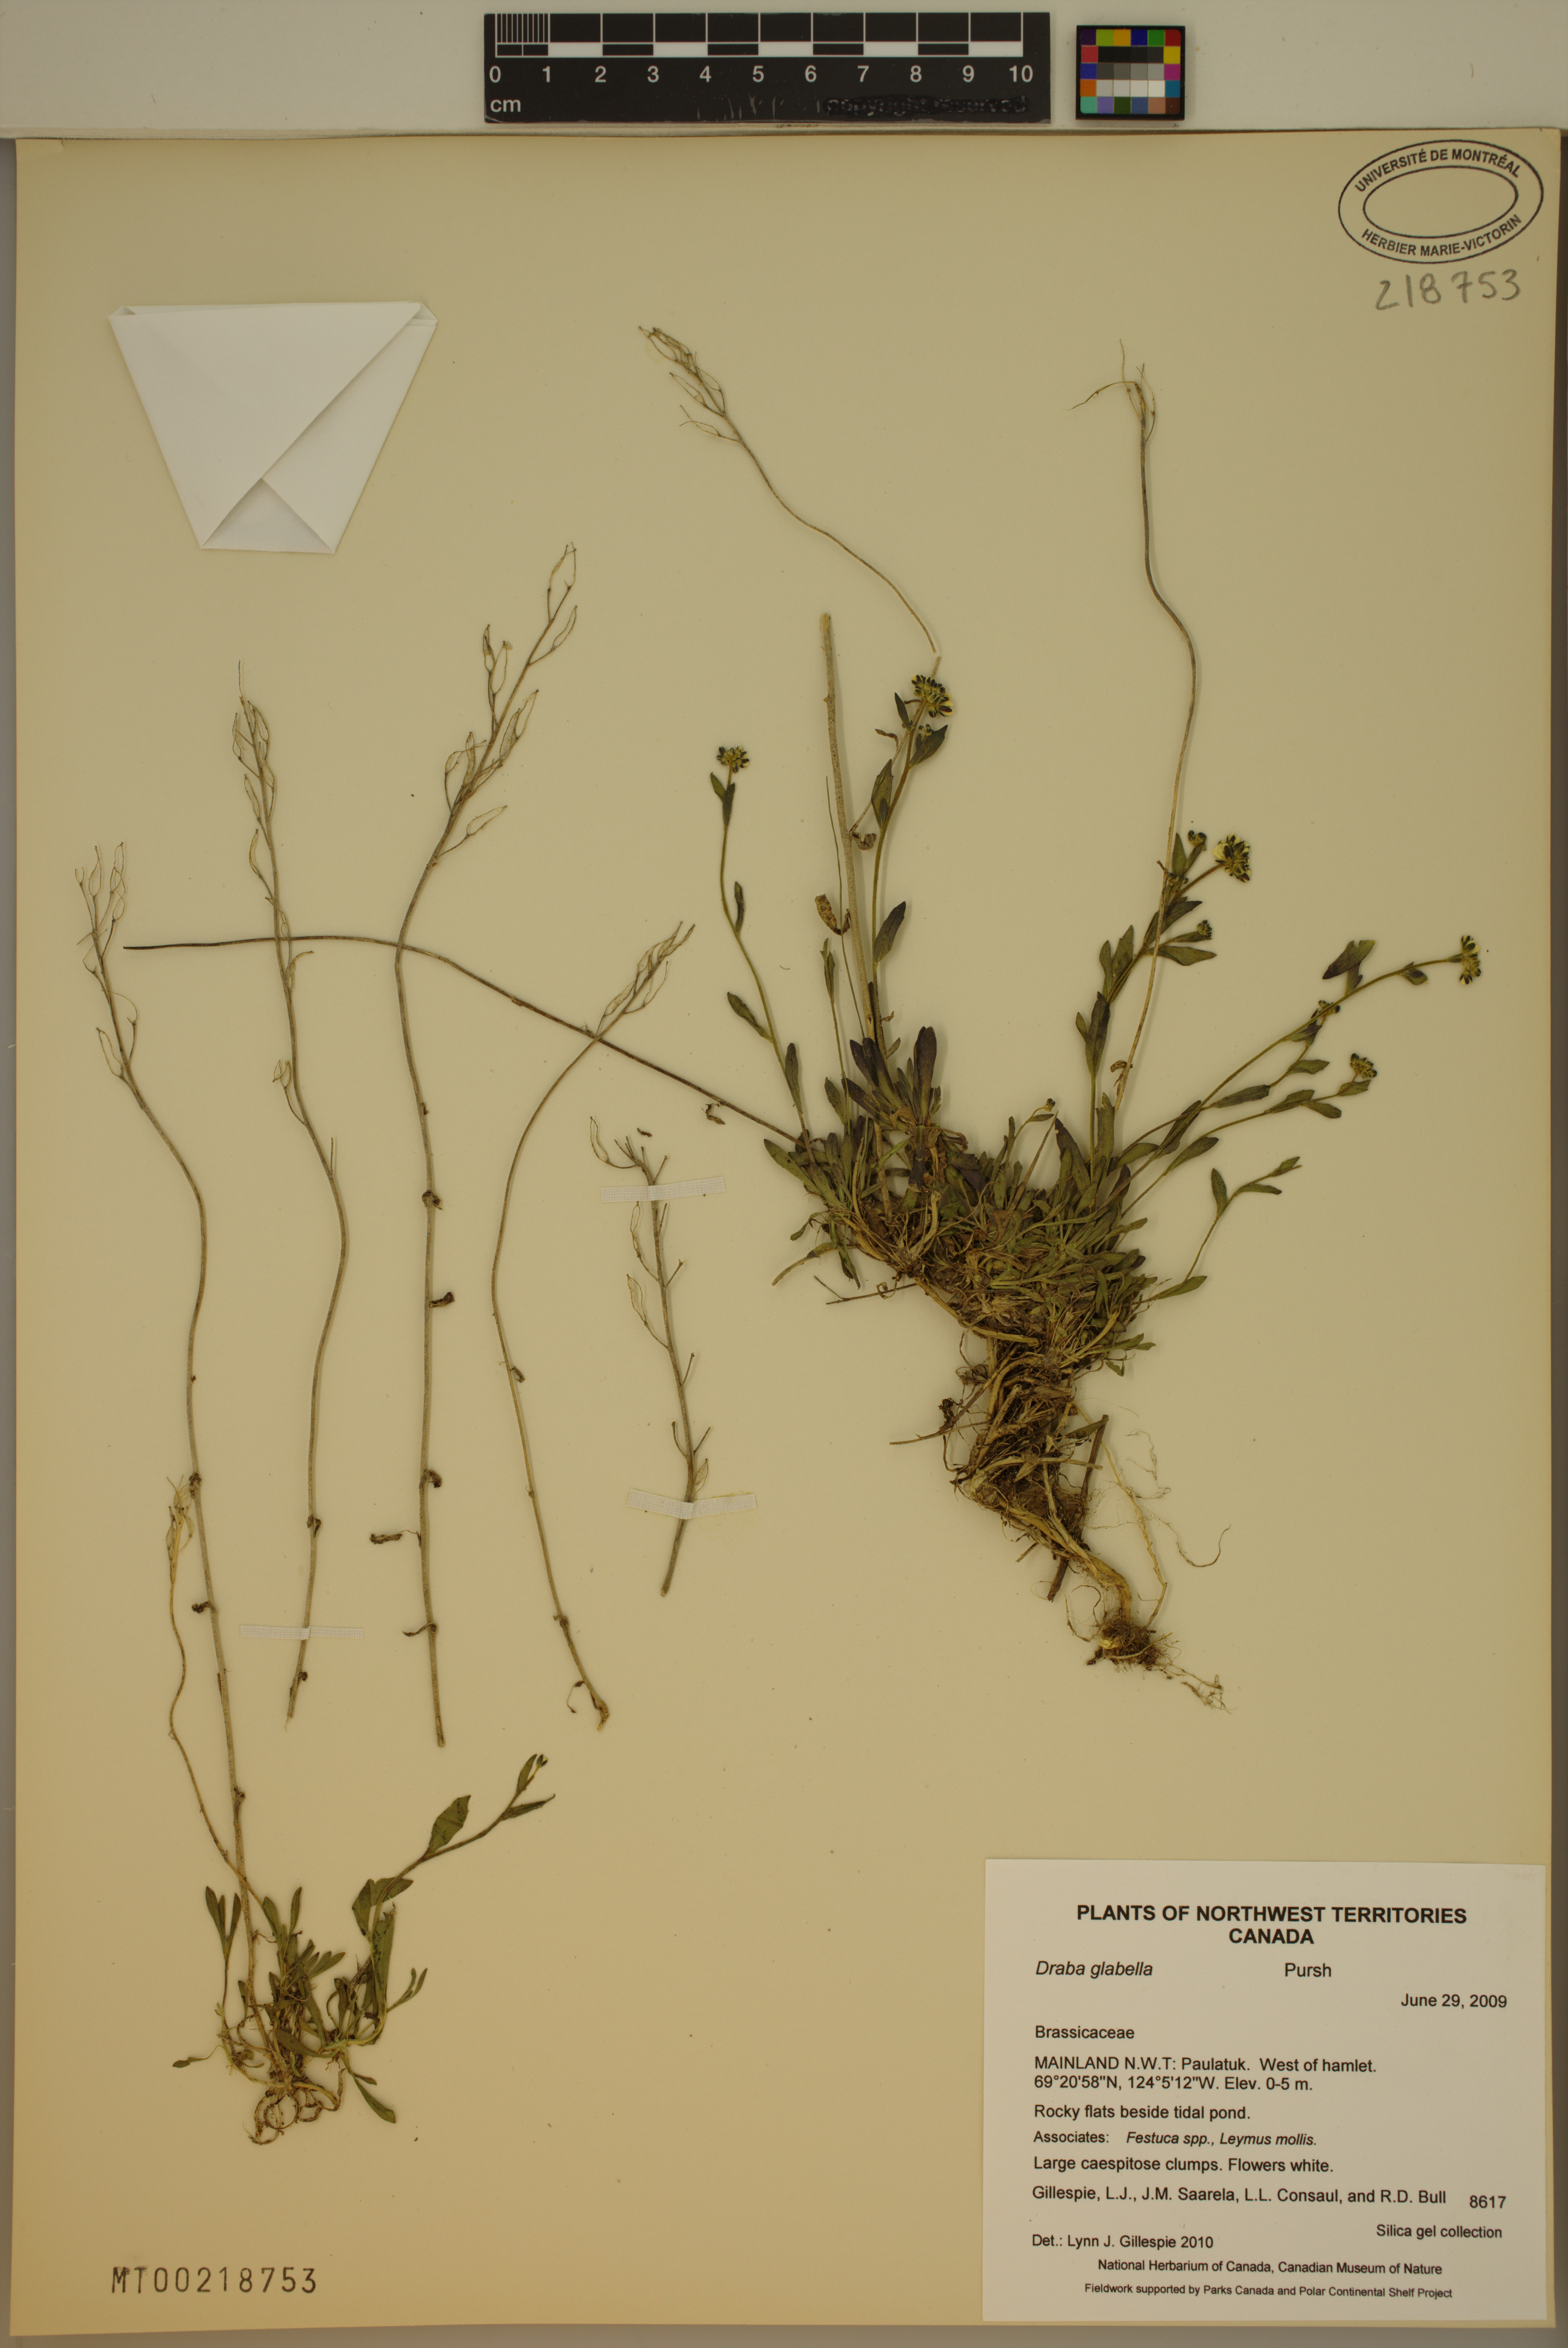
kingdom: Plantae
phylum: Tracheophyta
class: Magnoliopsida
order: Brassicales
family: Brassicaceae
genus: Draba
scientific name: Draba glabella
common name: Glaucous draba
